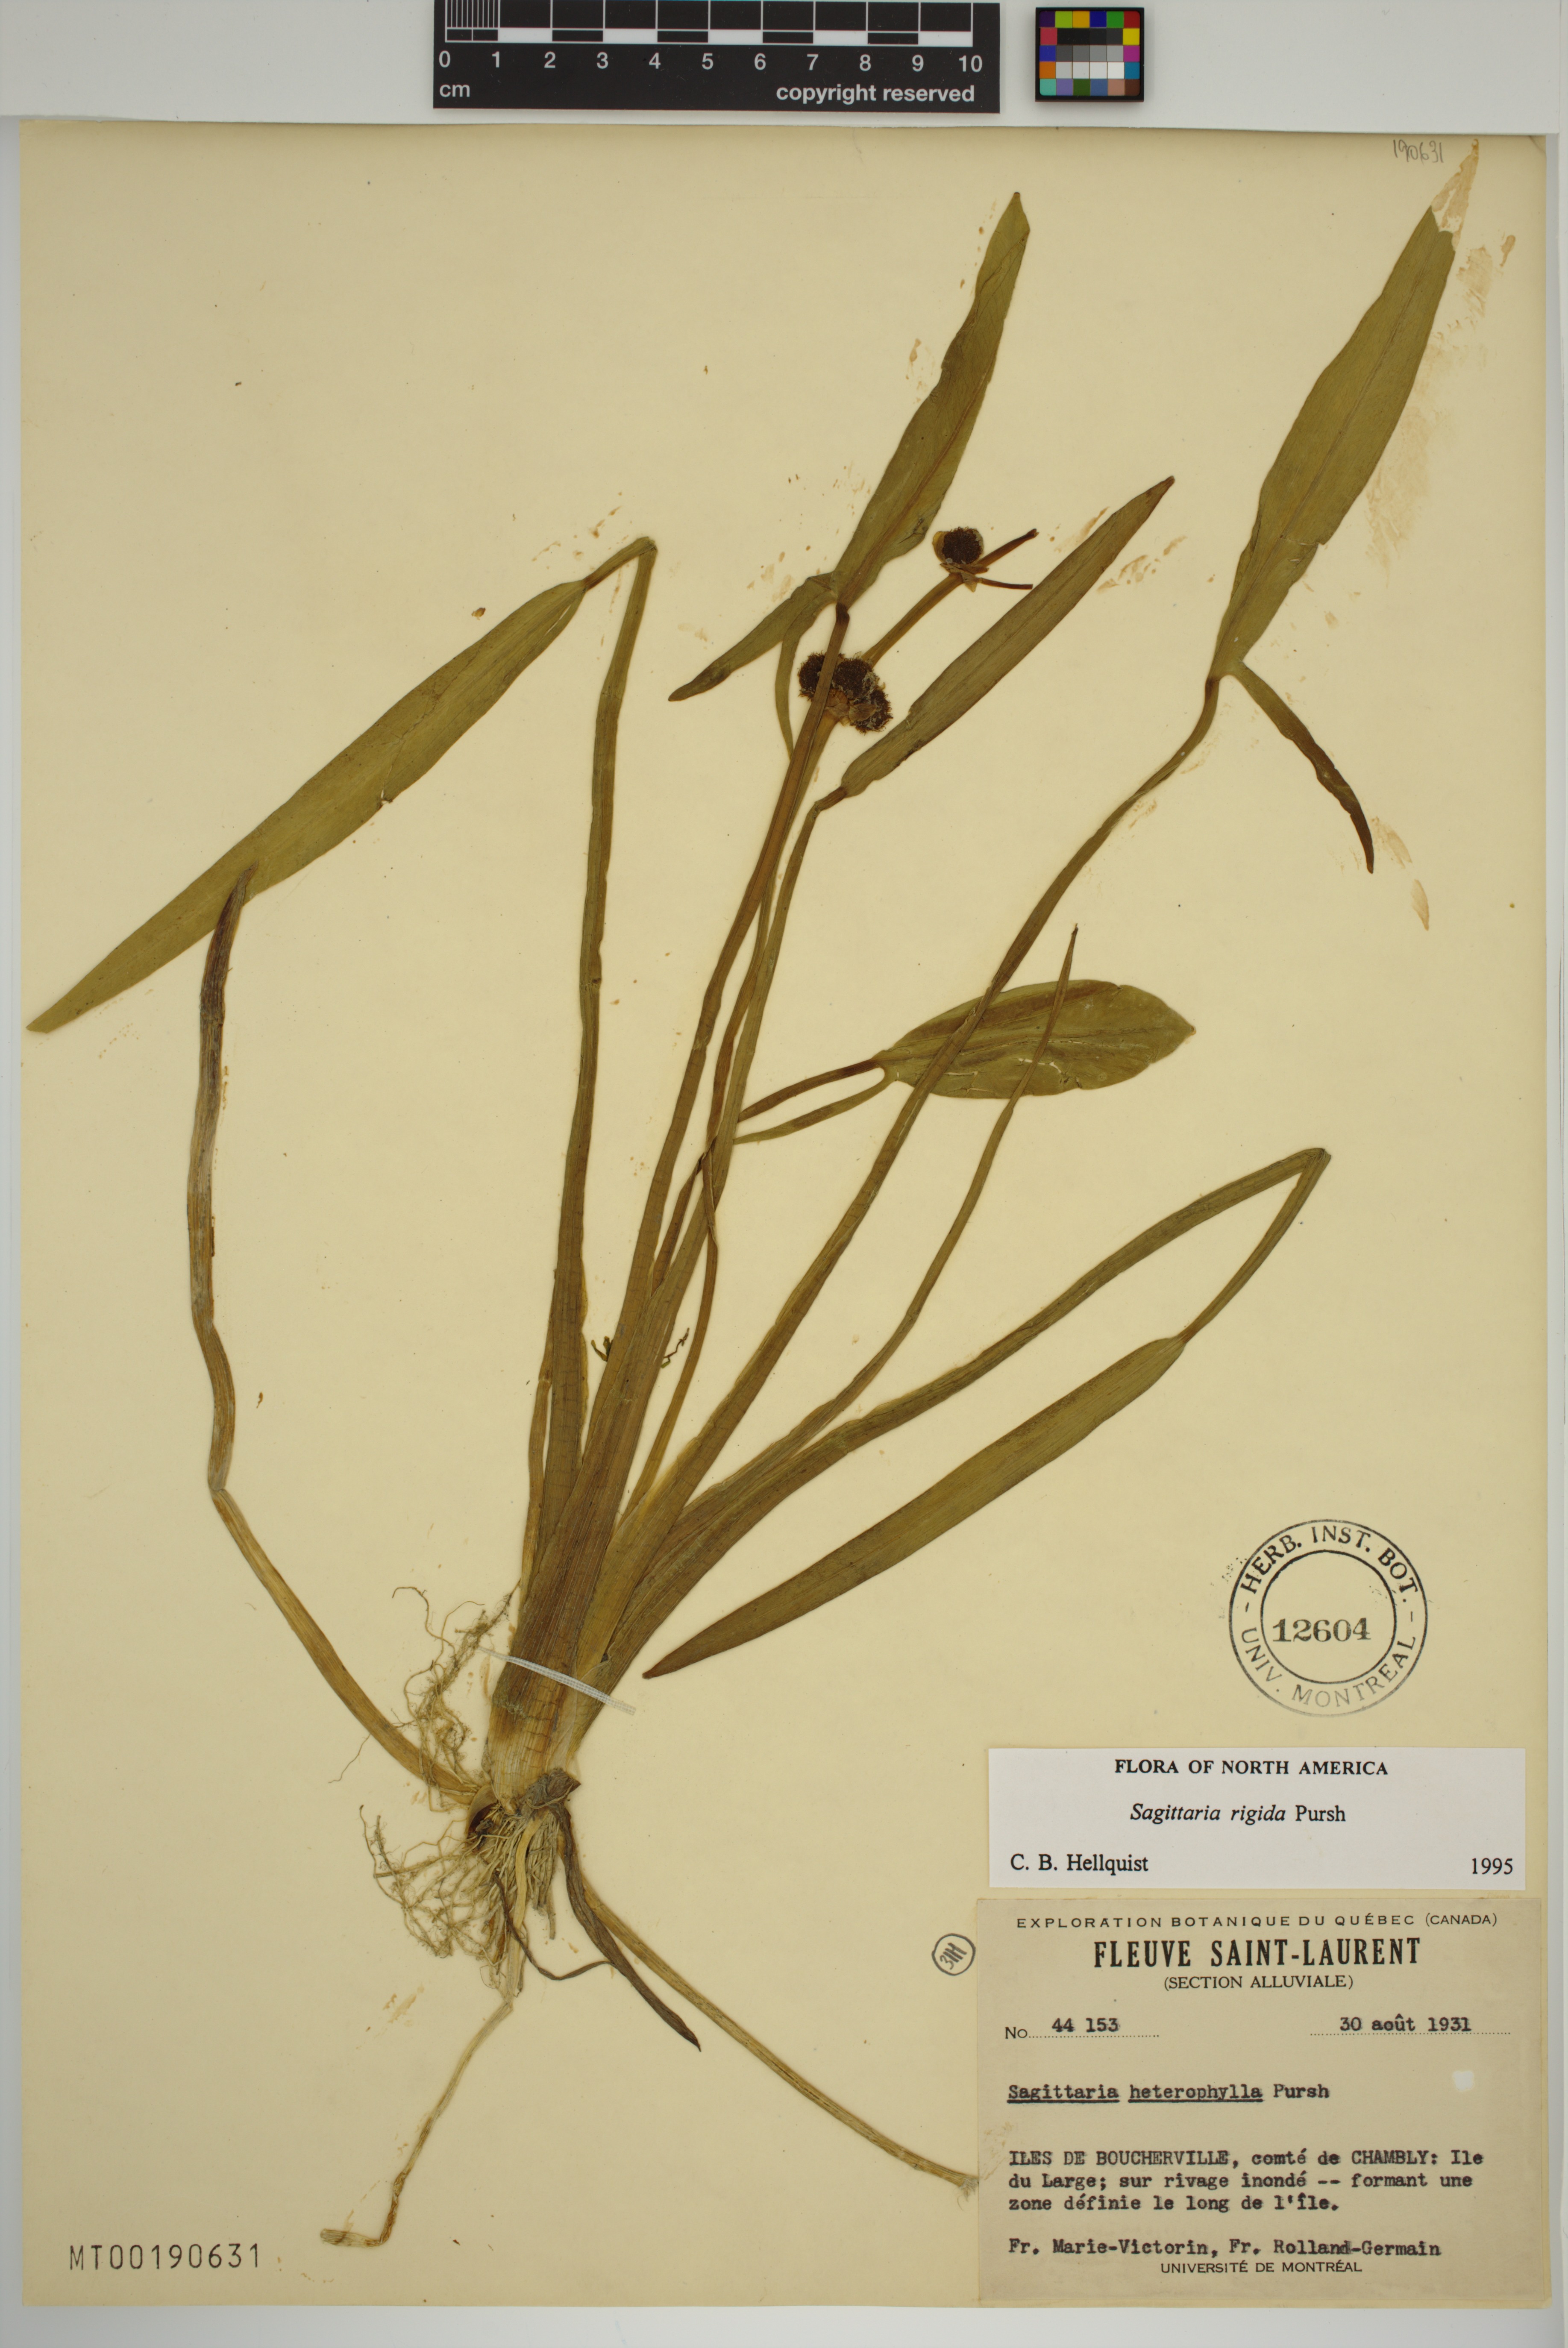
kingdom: Plantae
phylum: Tracheophyta
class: Liliopsida
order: Alismatales
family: Alismataceae
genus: Sagittaria
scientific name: Sagittaria rigida
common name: Canadian arrowhead
